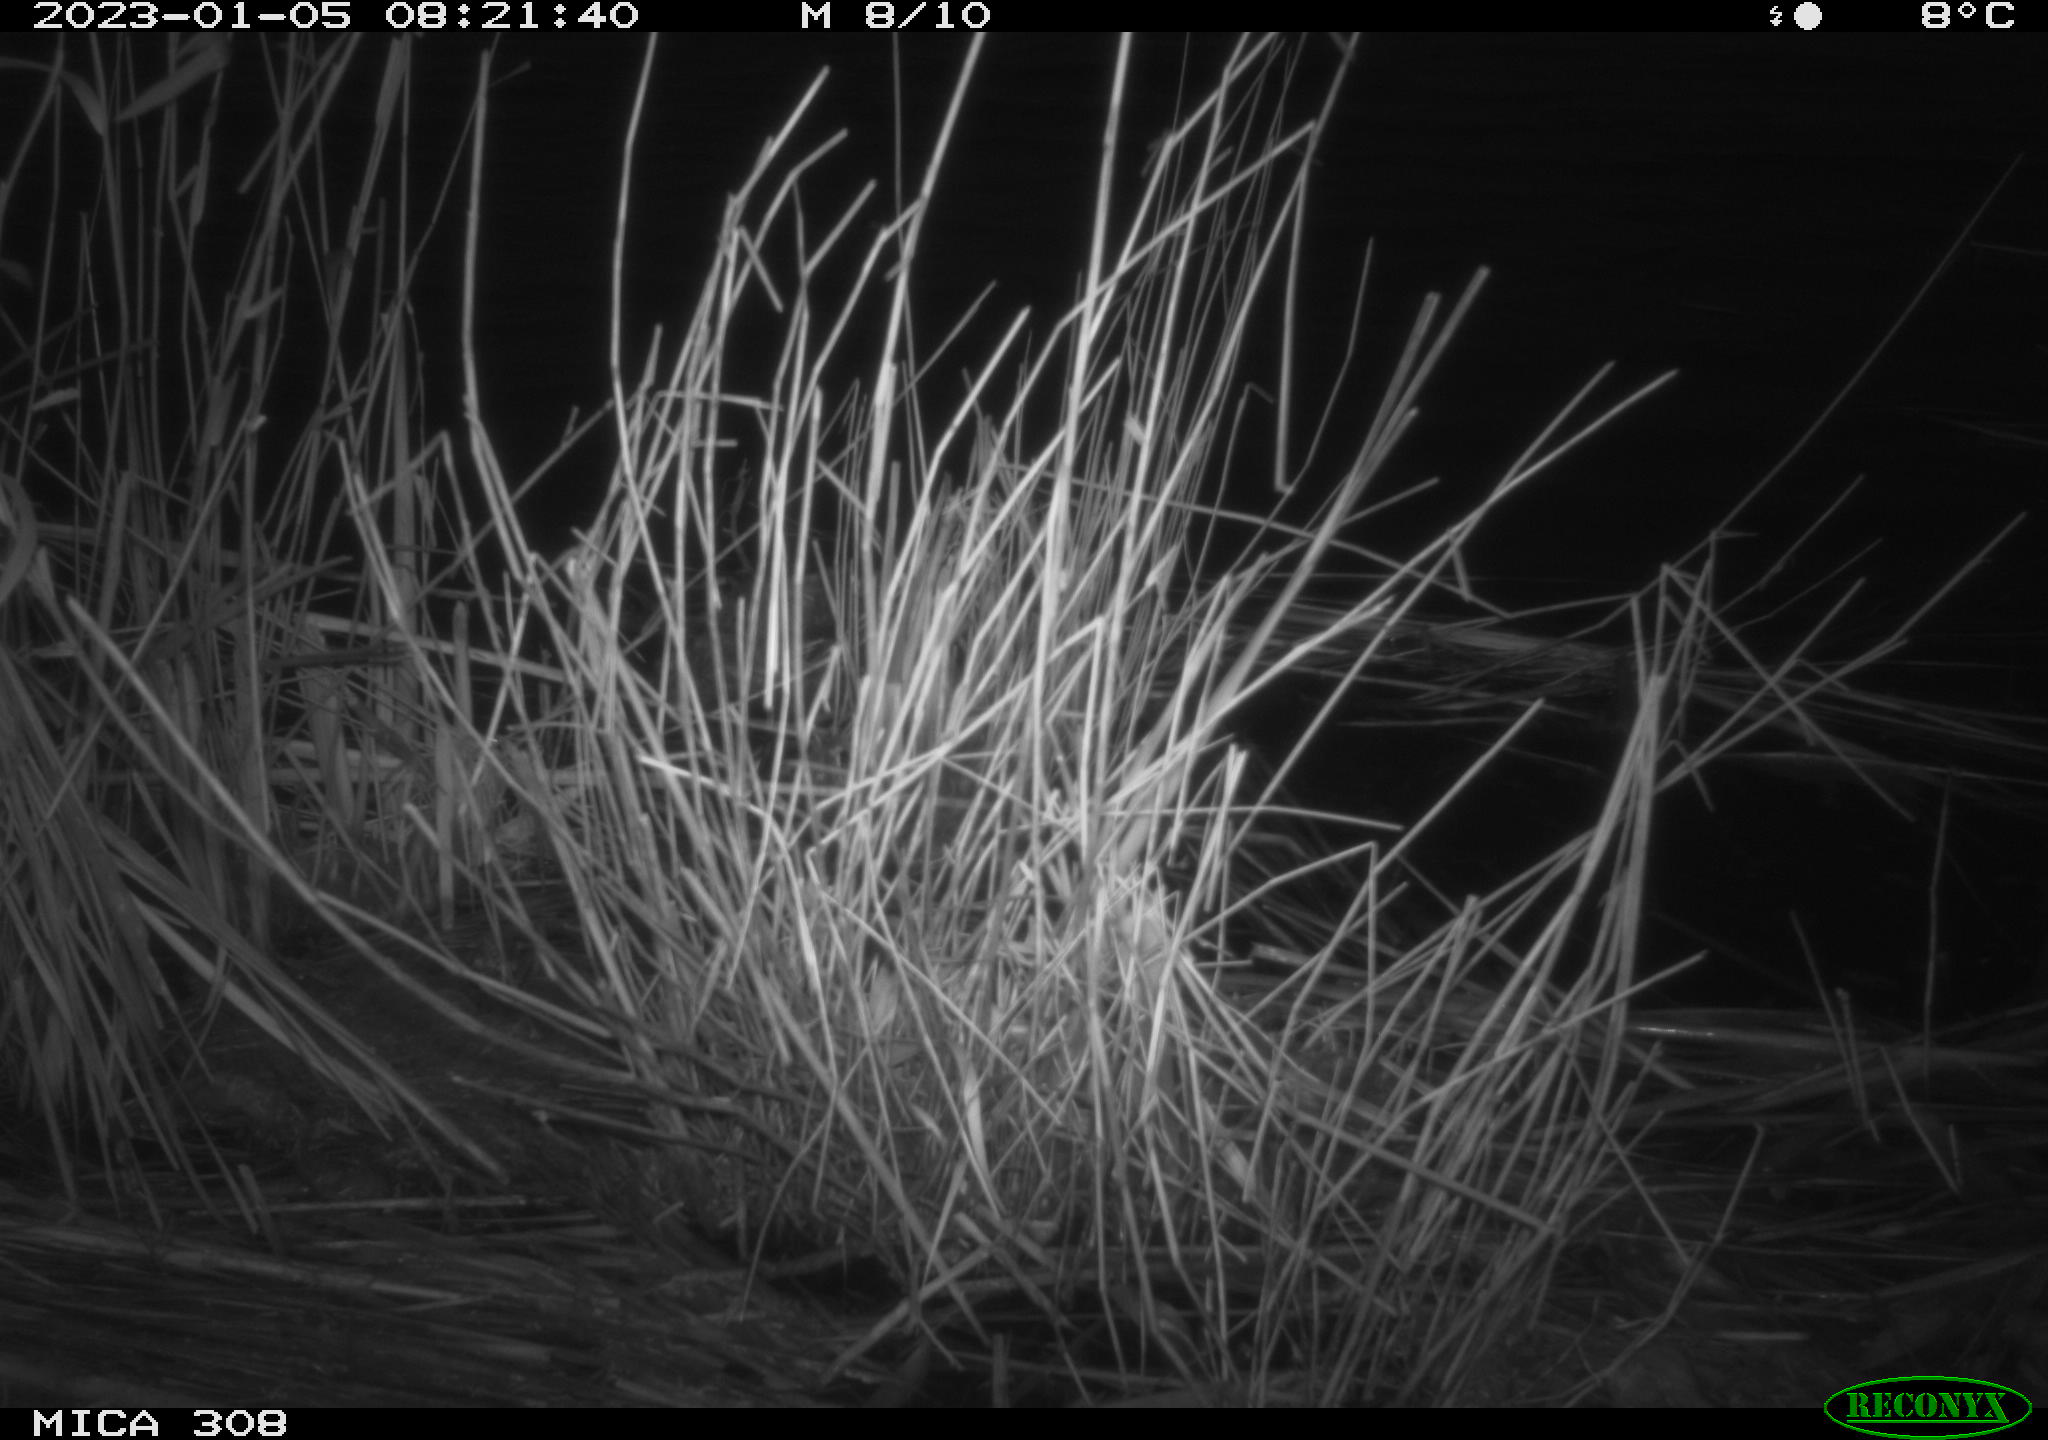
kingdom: Animalia
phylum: Chordata
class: Aves
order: Gruiformes
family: Rallidae
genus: Gallinula
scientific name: Gallinula chloropus
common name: Common moorhen
